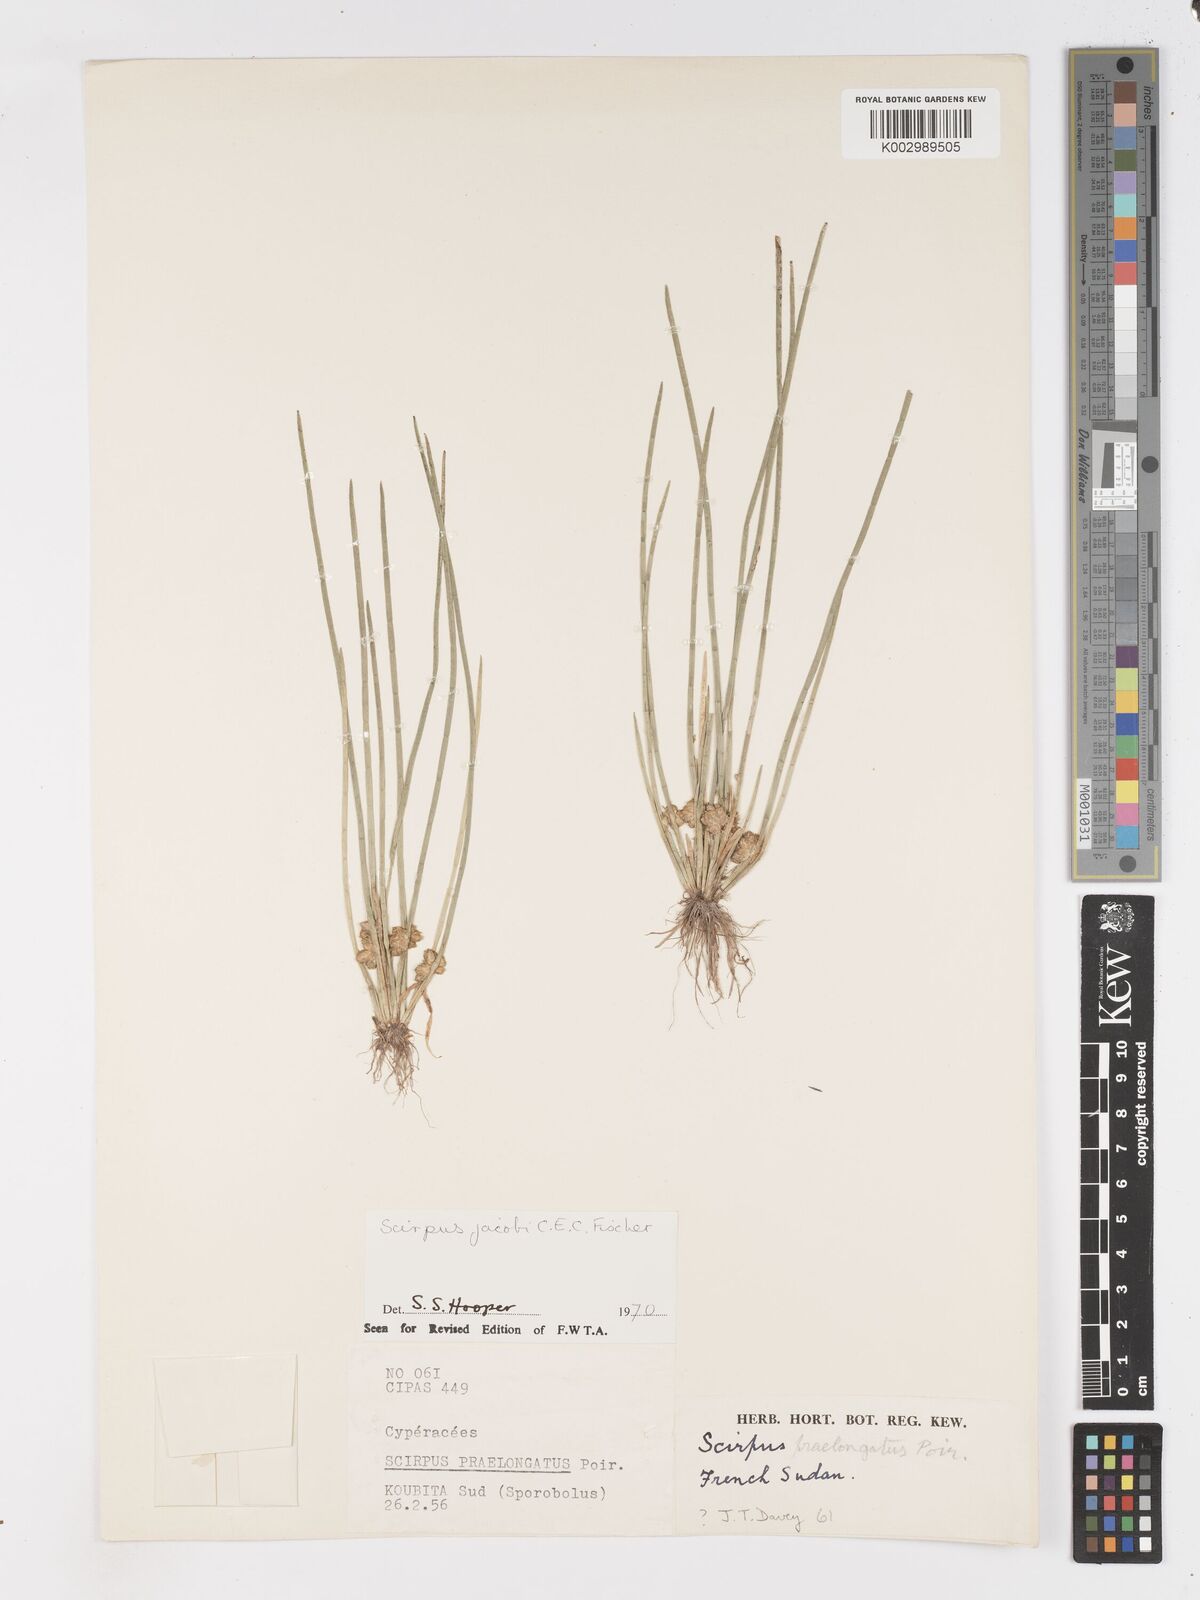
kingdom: Plantae
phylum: Tracheophyta
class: Liliopsida
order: Poales
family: Cyperaceae
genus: Schoenoplectiella
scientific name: Schoenoplectiella senegalensis
